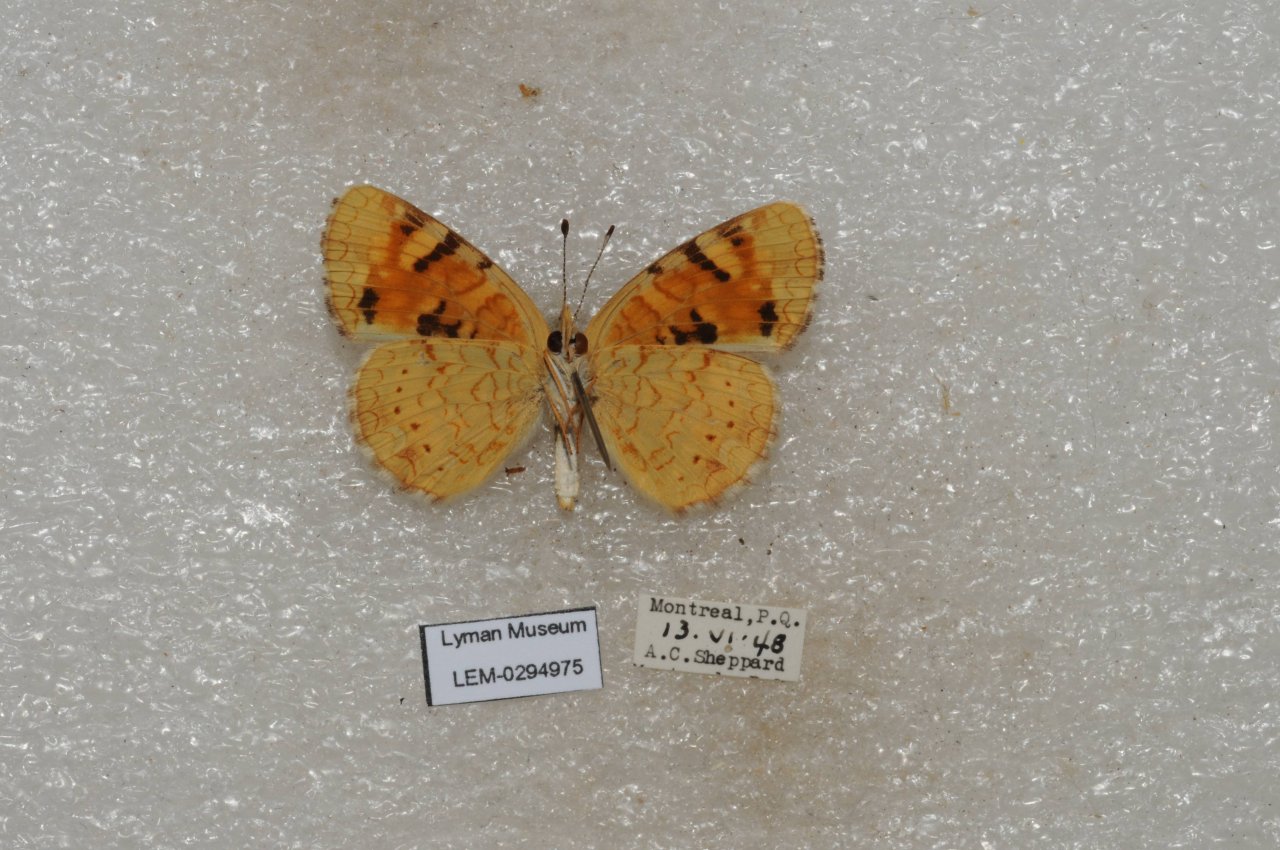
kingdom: Animalia
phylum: Arthropoda
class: Insecta
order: Lepidoptera
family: Nymphalidae
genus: Phyciodes
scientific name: Phyciodes batesii
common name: Tawny Crescent
